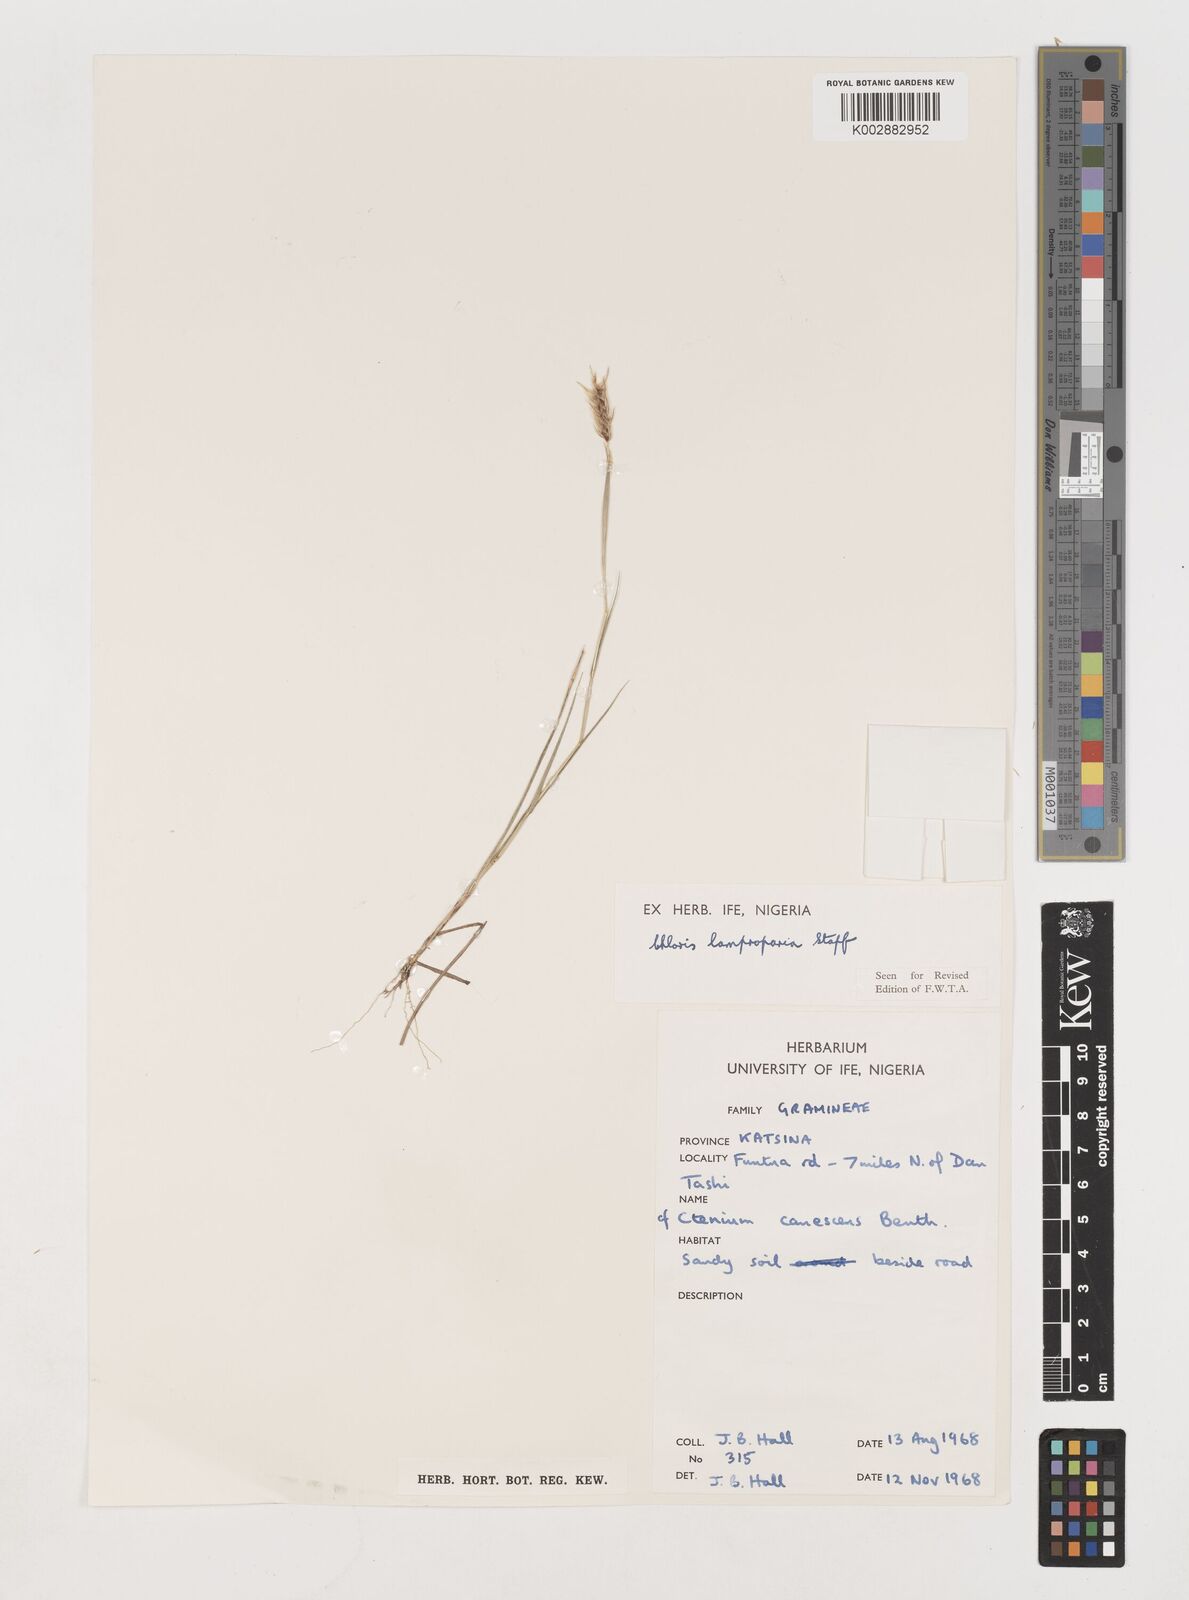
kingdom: Plantae
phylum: Tracheophyta
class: Liliopsida
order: Poales
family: Poaceae
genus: Stapfochloa
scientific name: Stapfochloa lamproparia
